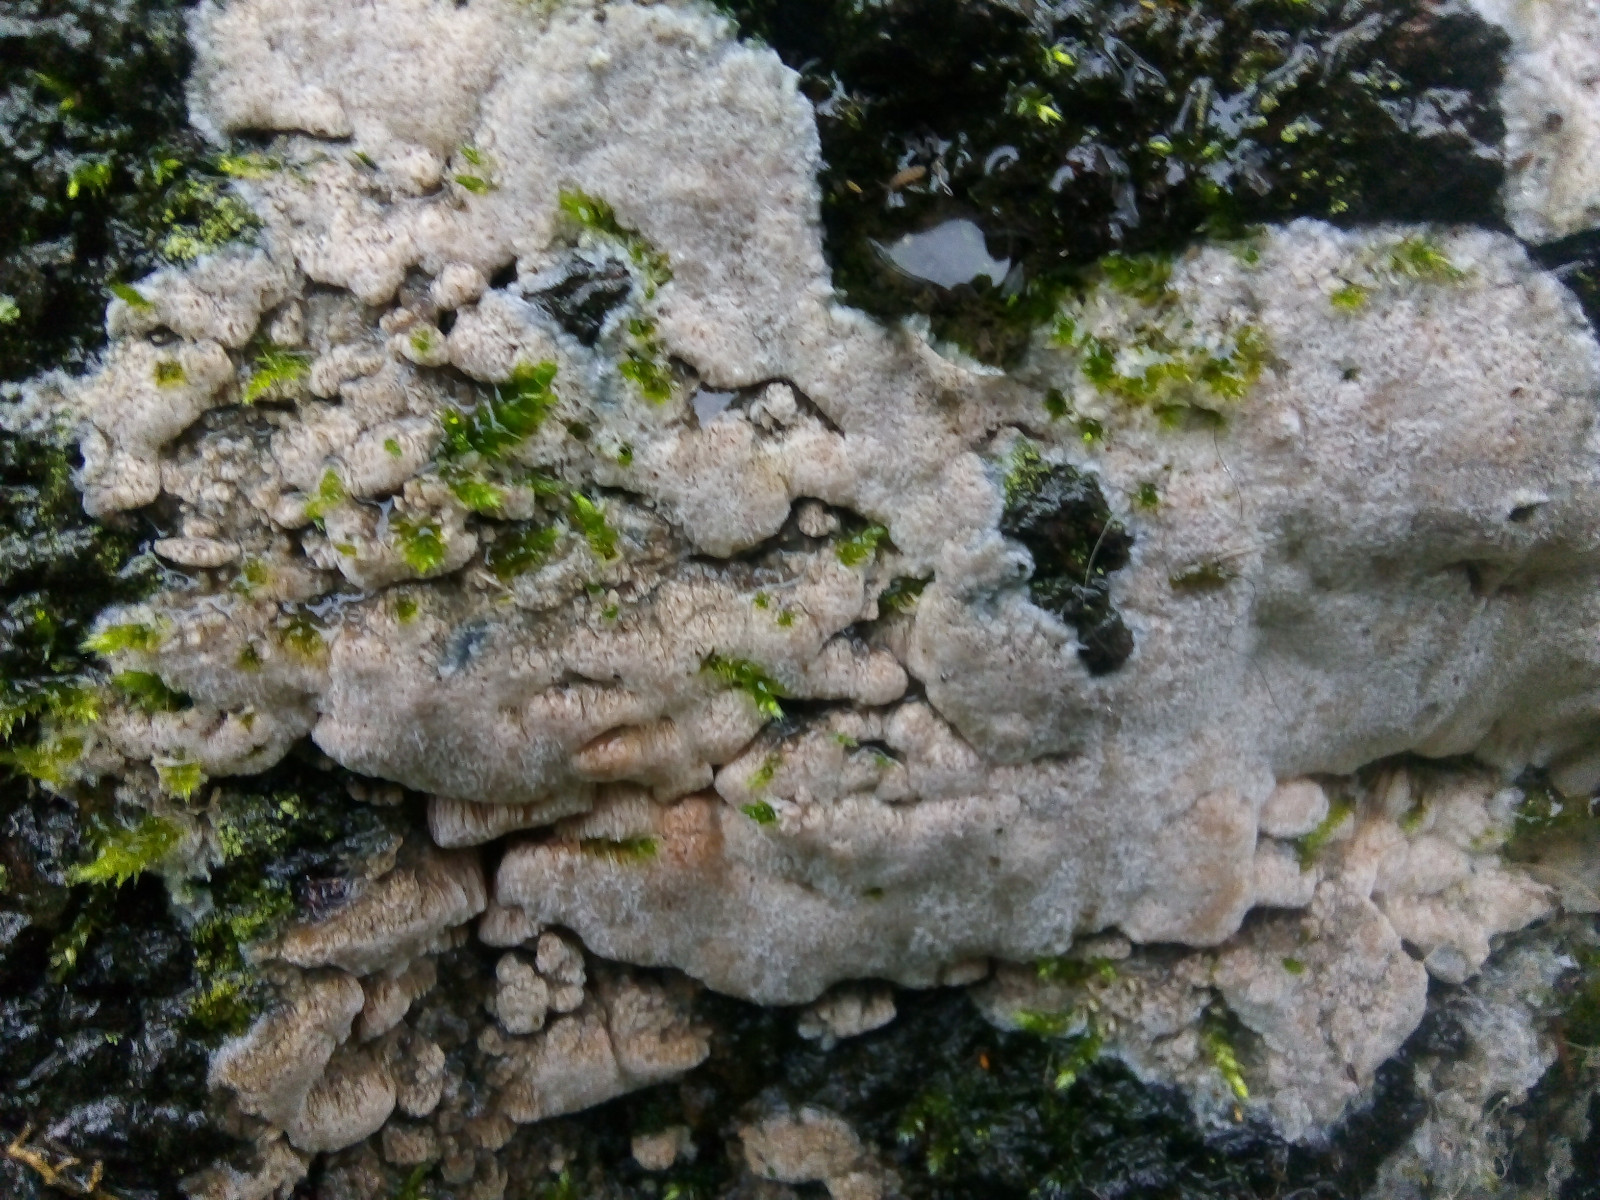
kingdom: Fungi
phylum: Basidiomycota
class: Agaricomycetes
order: Polyporales
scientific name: Polyporales
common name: poresvampordenen
